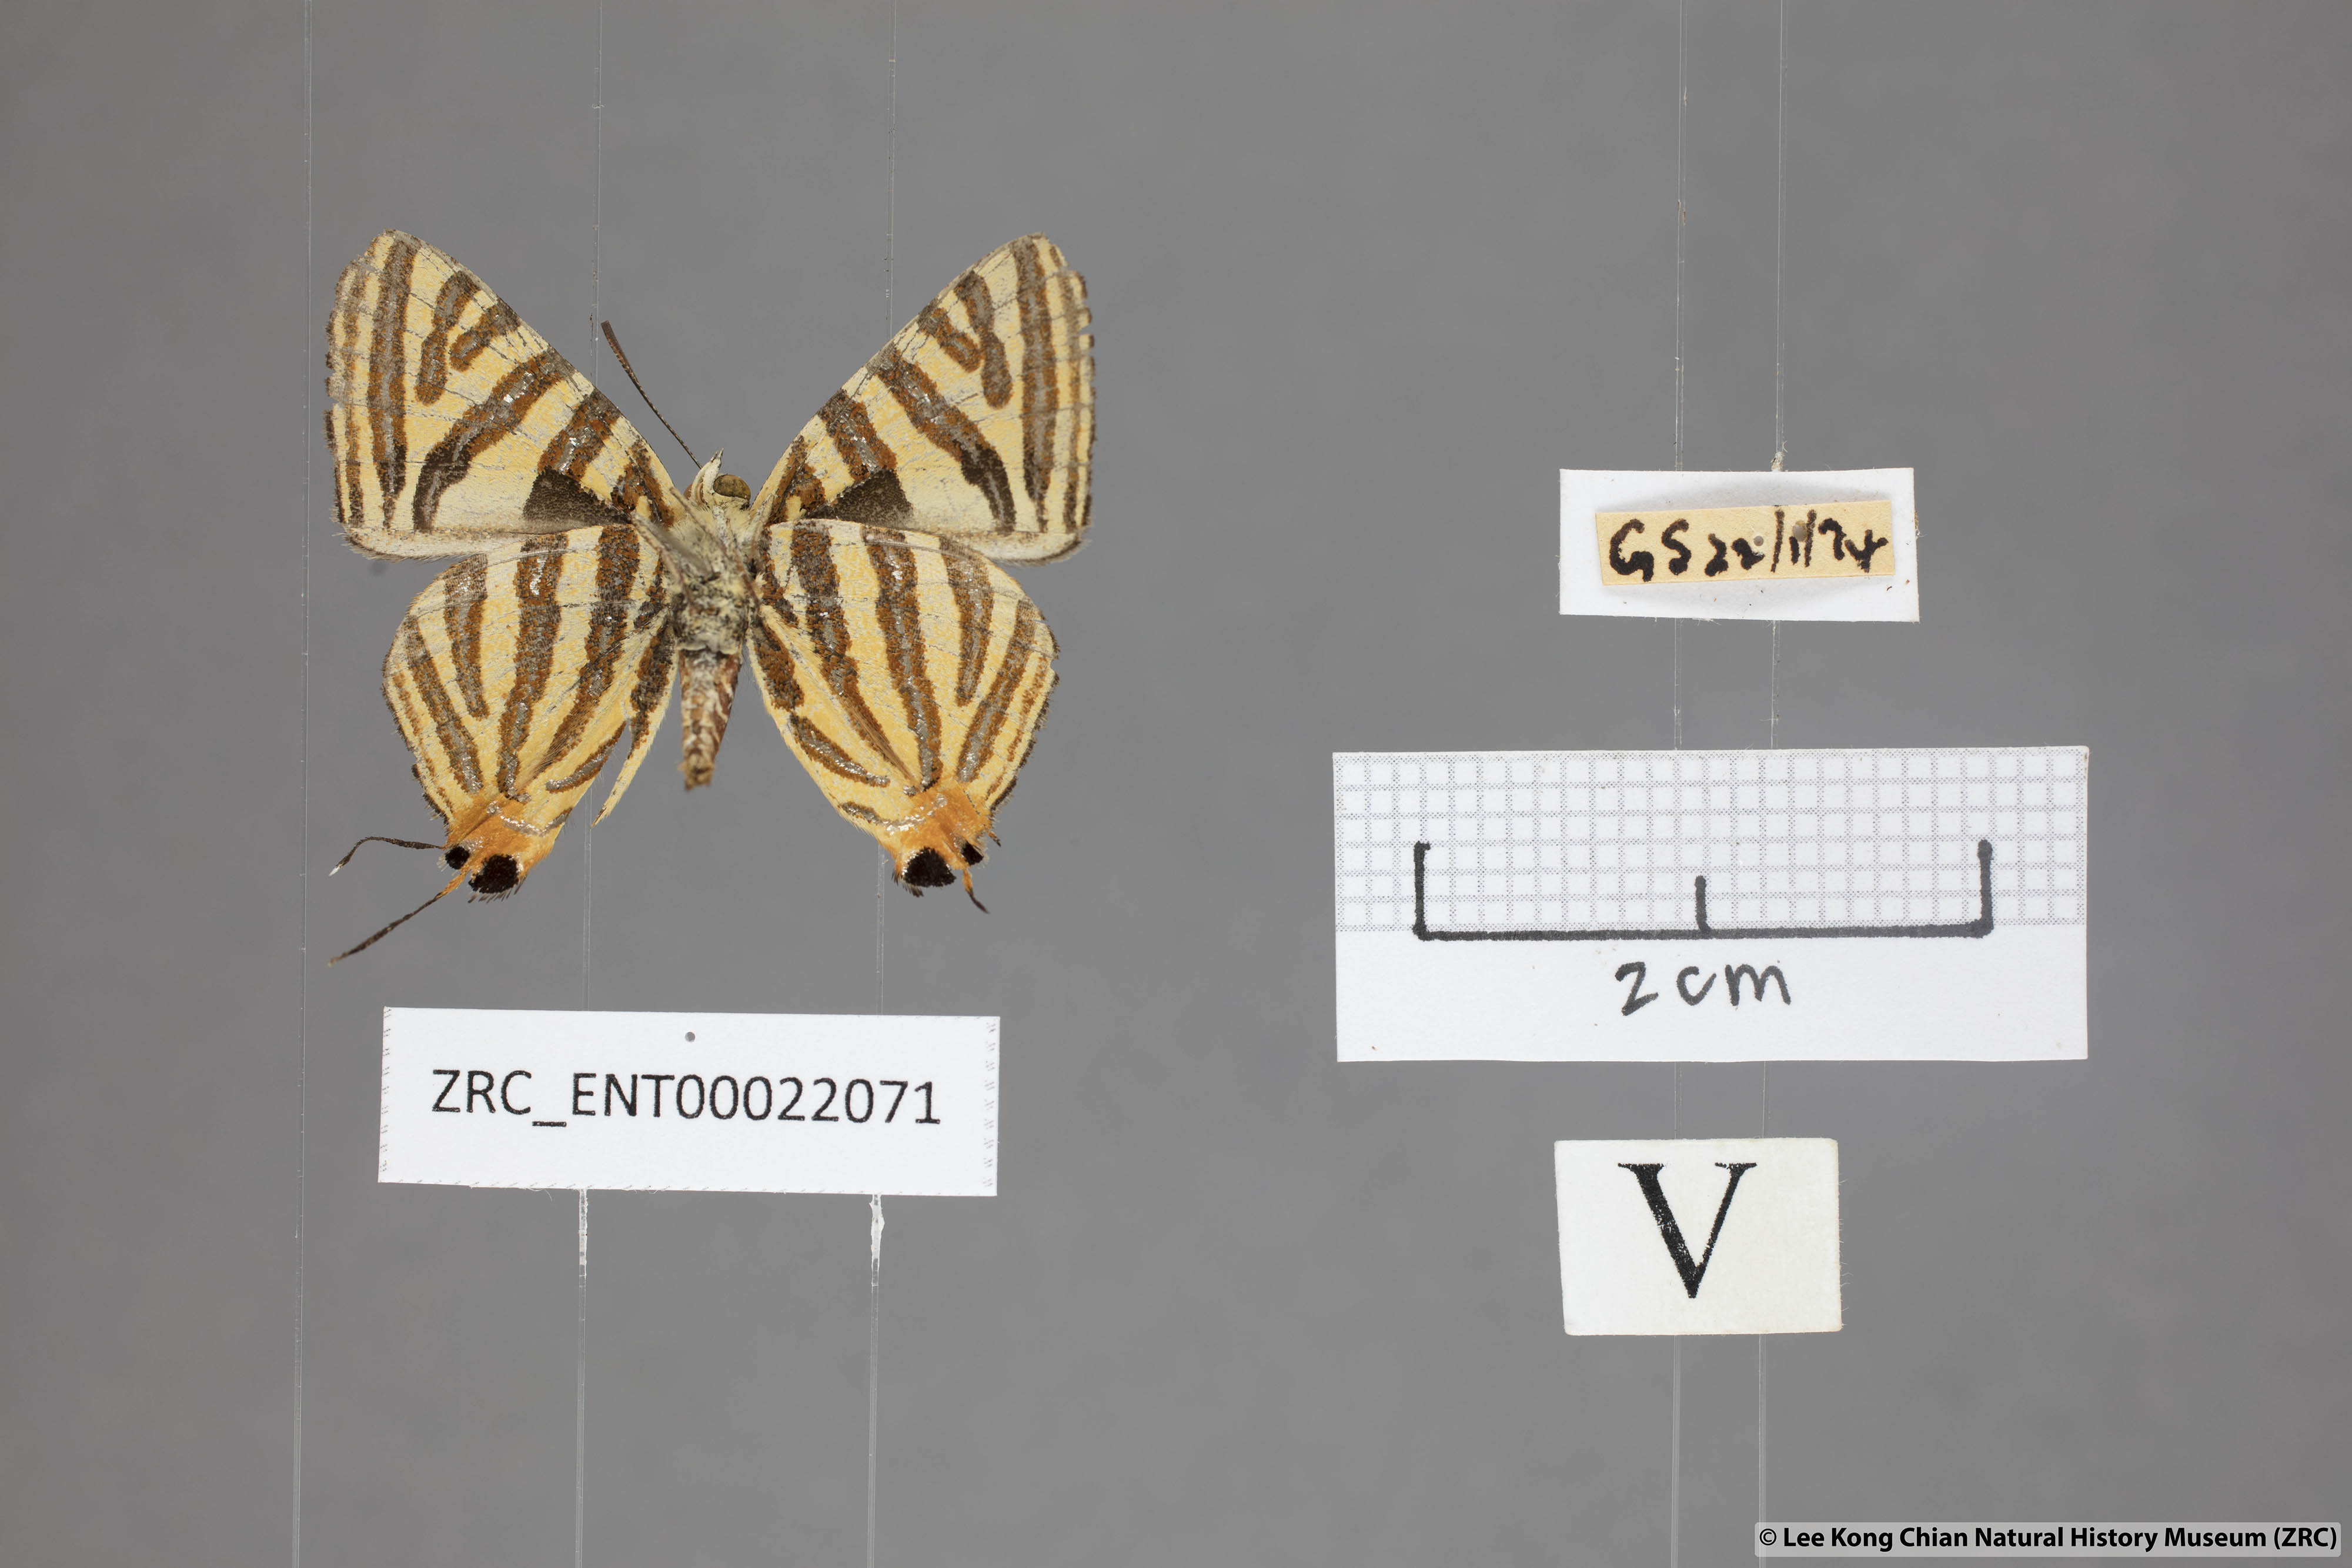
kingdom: Animalia
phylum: Arthropoda
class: Insecta
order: Lepidoptera
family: Lycaenidae
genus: Spindasis
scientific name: Spindasis lohita
